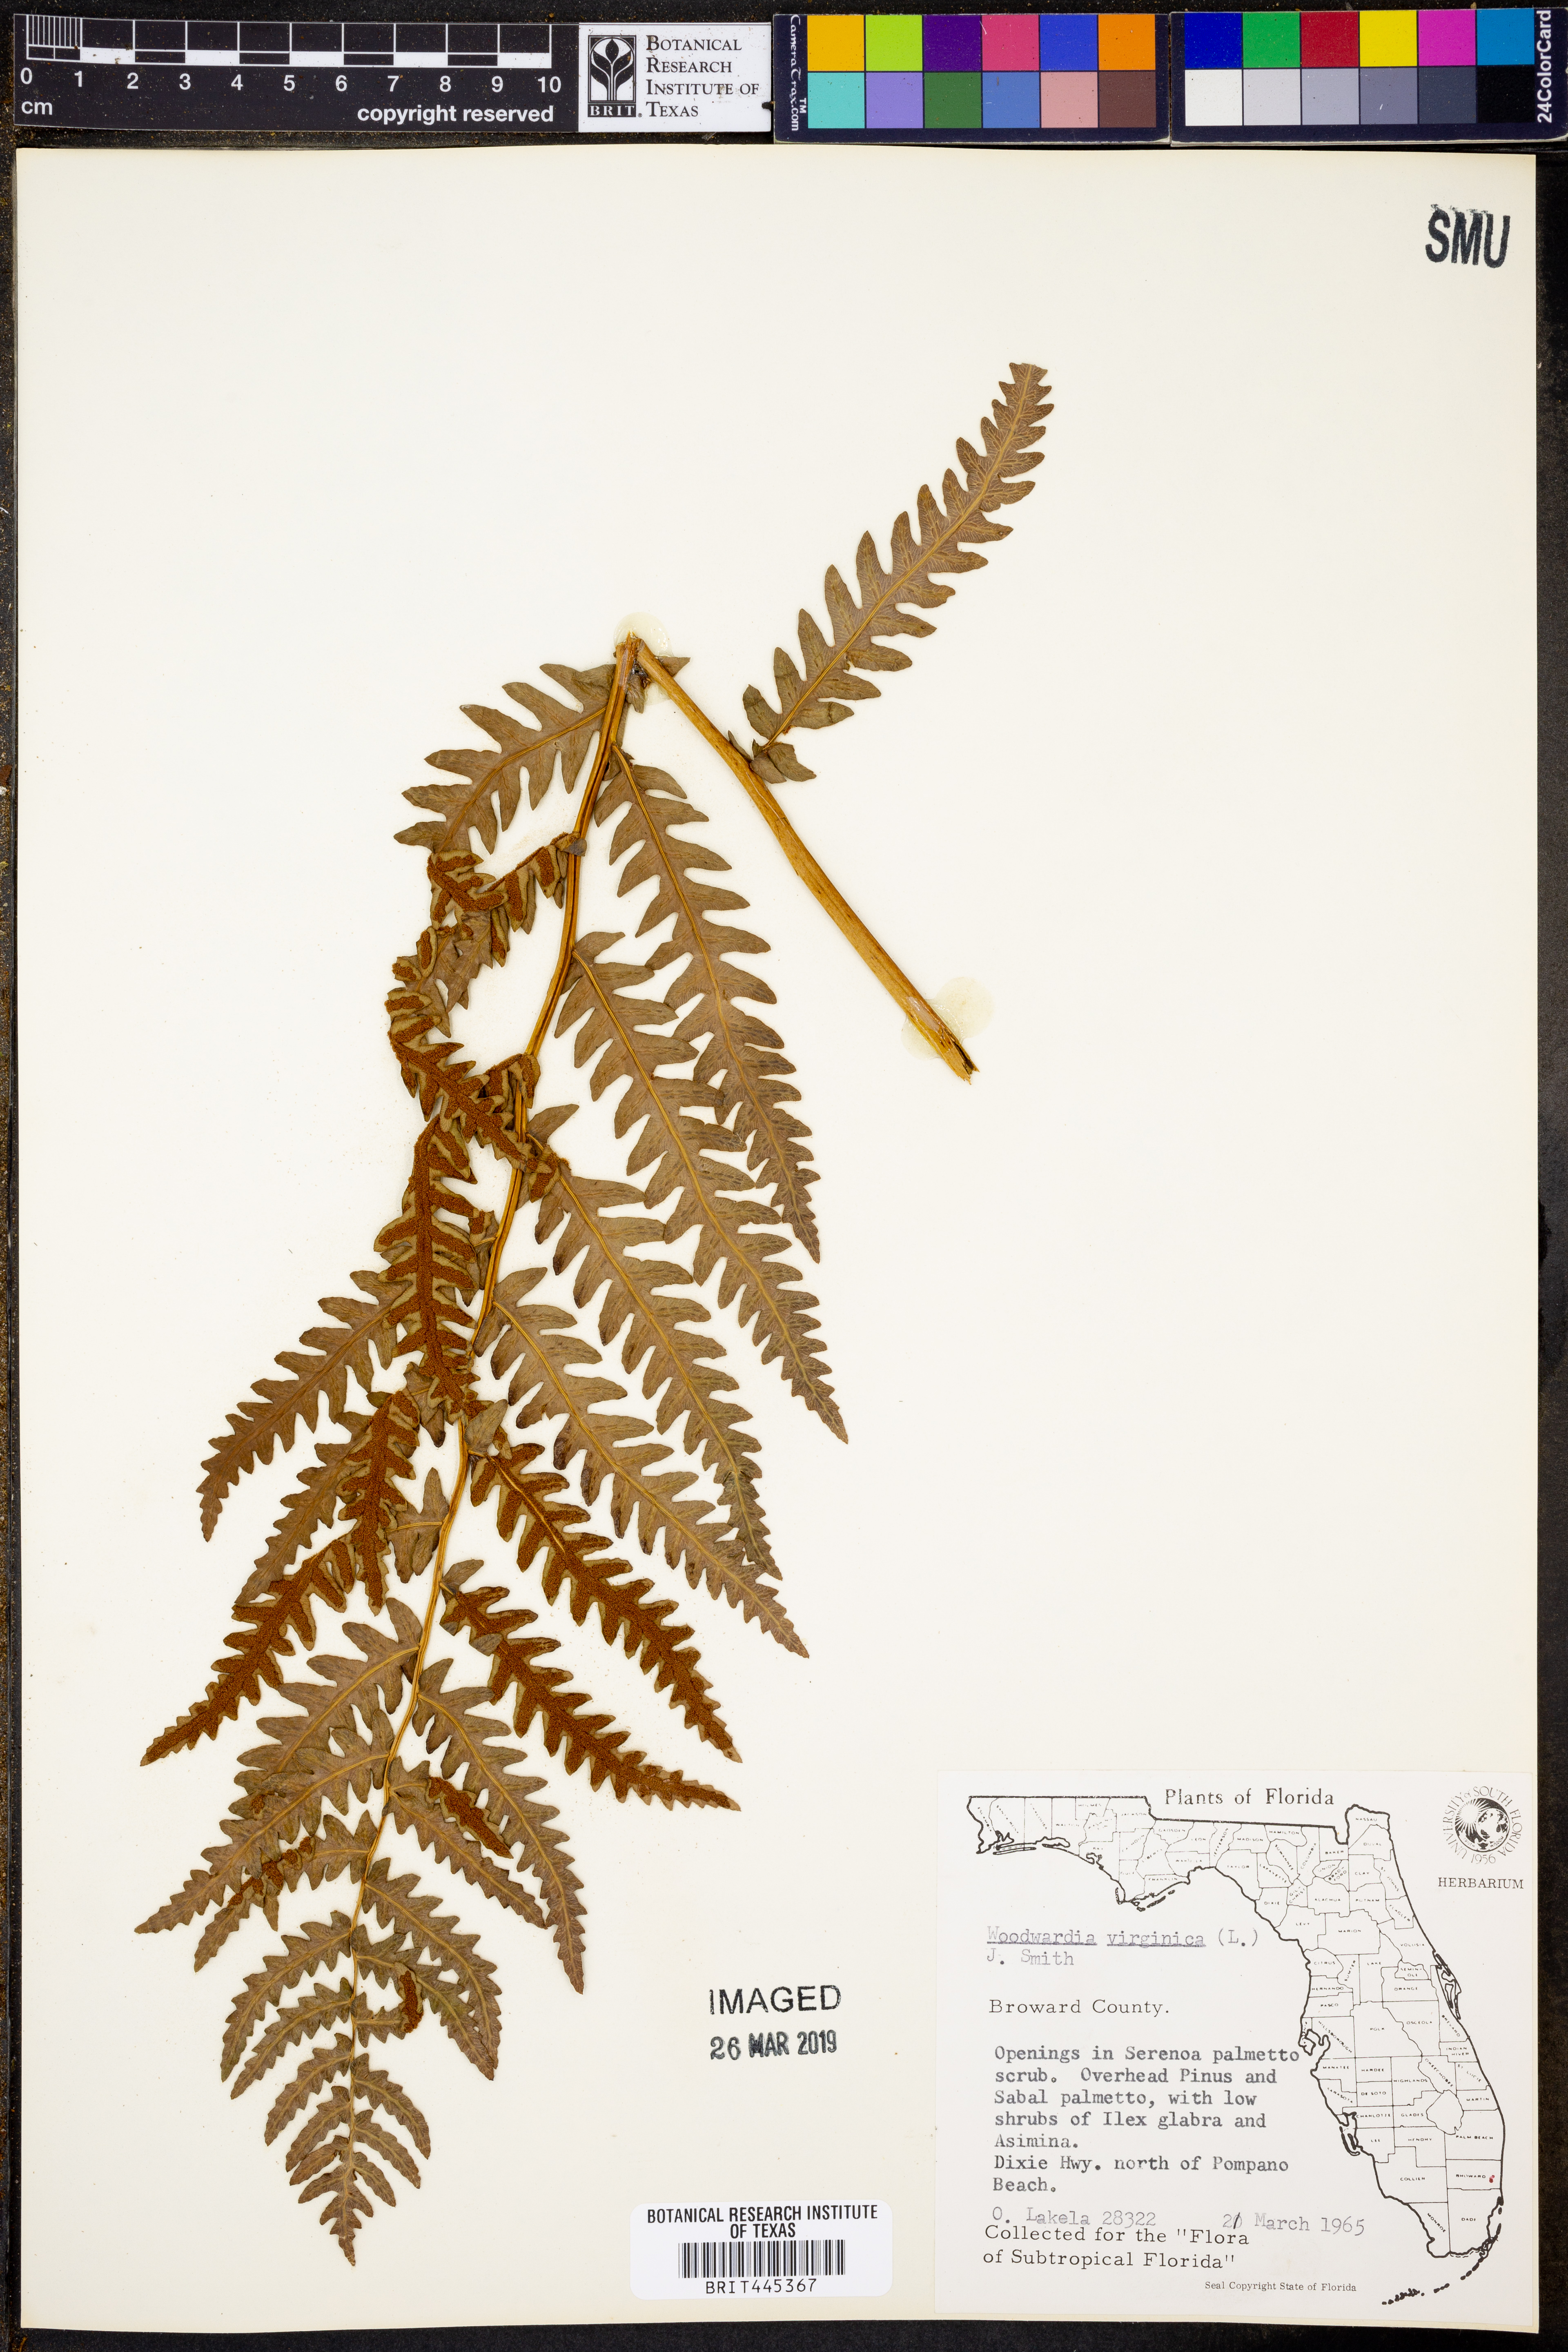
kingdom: Plantae
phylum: Tracheophyta
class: Polypodiopsida
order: Polypodiales
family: Blechnaceae
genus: Anchistea
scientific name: Anchistea virginica
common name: Virginia chain fern
